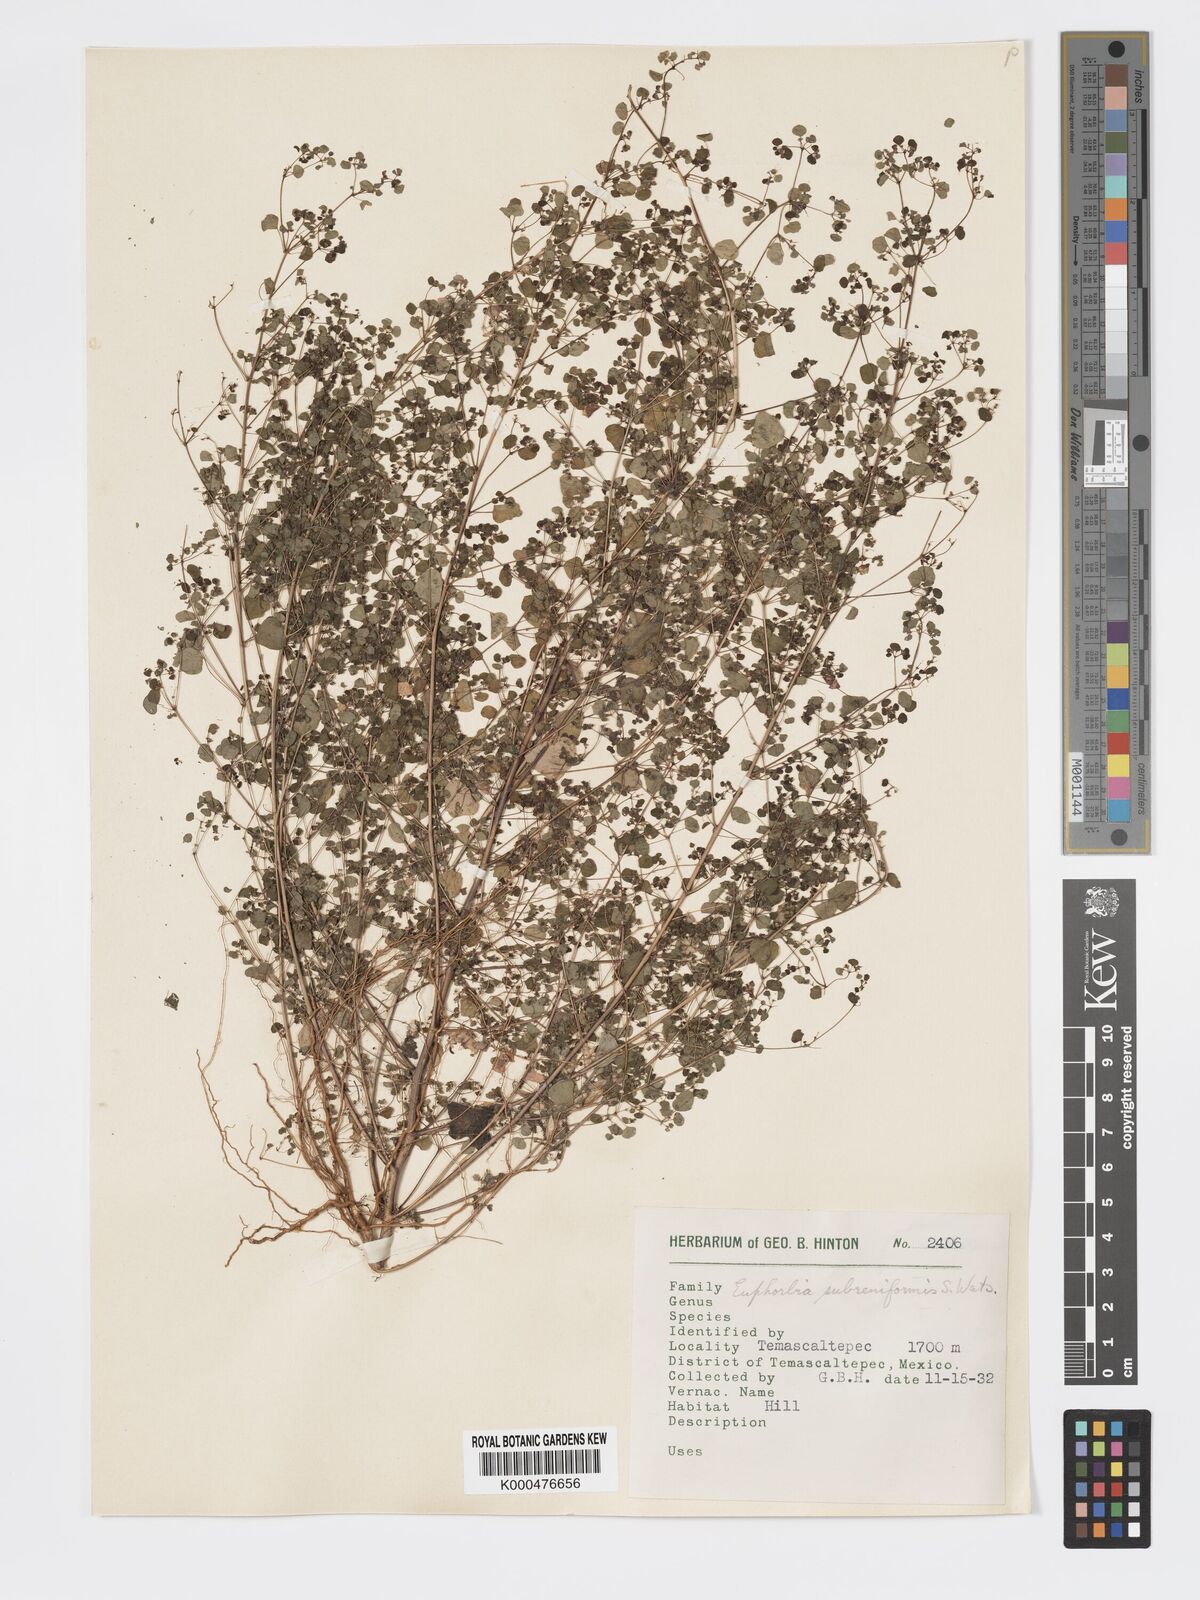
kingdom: Plantae
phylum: Tracheophyta
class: Magnoliopsida
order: Malpighiales
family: Euphorbiaceae
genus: Euphorbia
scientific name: Euphorbia fimbrilligera
